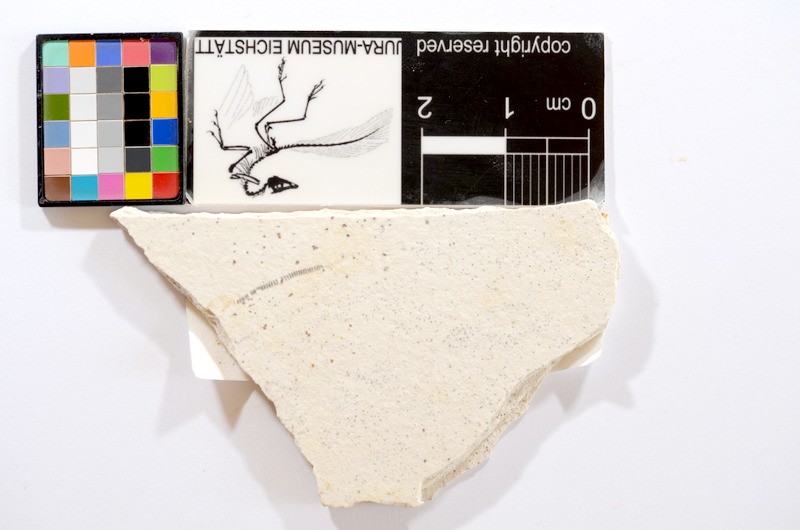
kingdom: Animalia
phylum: Chordata
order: Salmoniformes
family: Orthogonikleithridae
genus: Orthogonikleithrus
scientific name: Orthogonikleithrus hoelli
